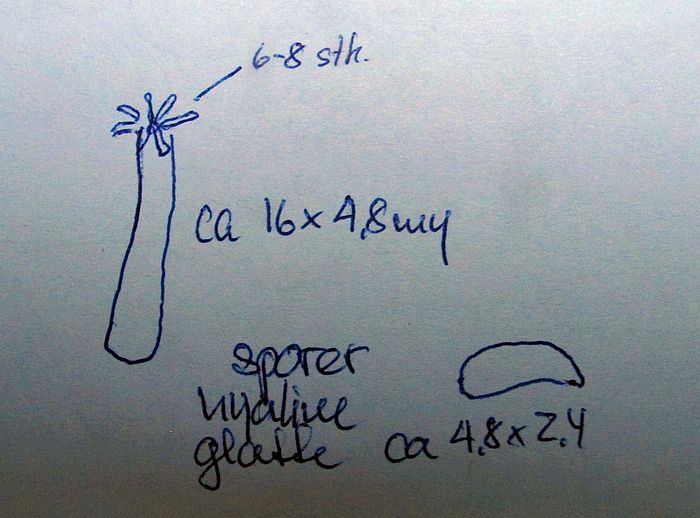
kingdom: Fungi
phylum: Basidiomycota
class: Agaricomycetes
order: Cantharellales
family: Hydnaceae
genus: Sistotrema
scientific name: Sistotrema brinkmannii
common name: bønnesporet kroneskorpe
